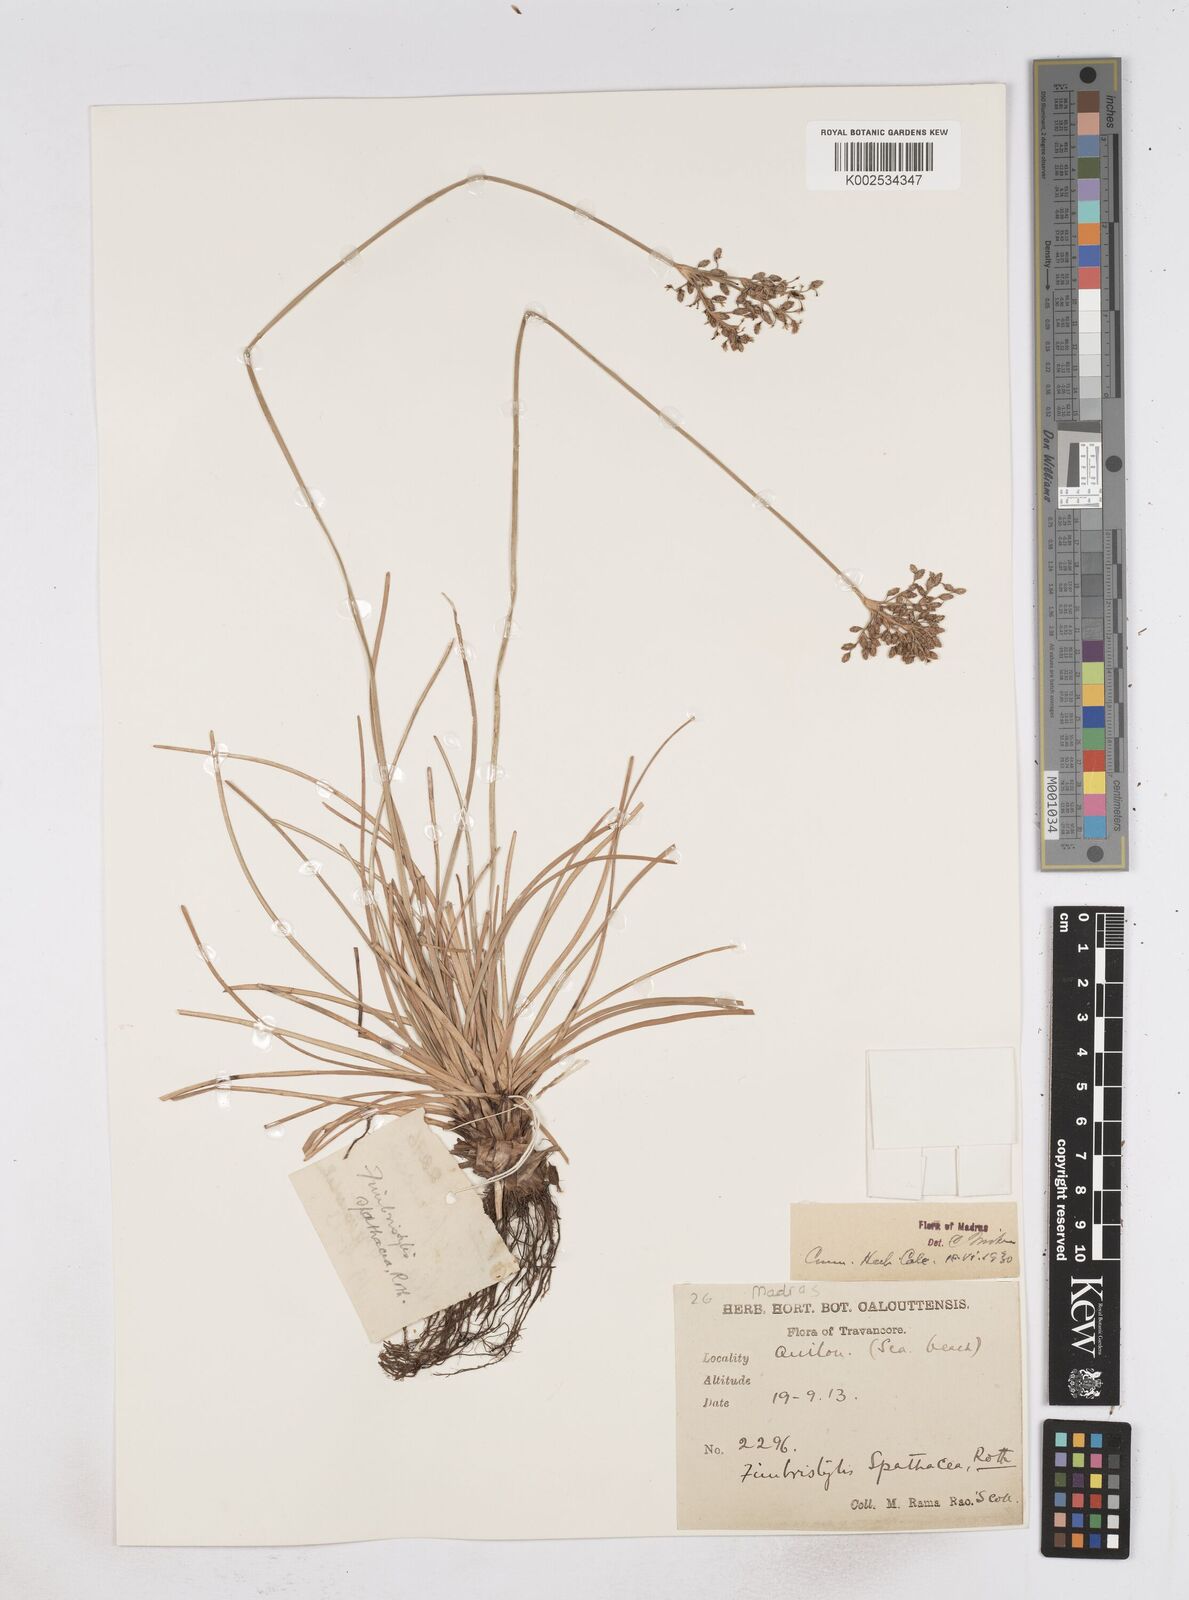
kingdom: Plantae
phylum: Tracheophyta
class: Liliopsida
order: Poales
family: Cyperaceae
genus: Fimbristylis
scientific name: Fimbristylis cymosa
